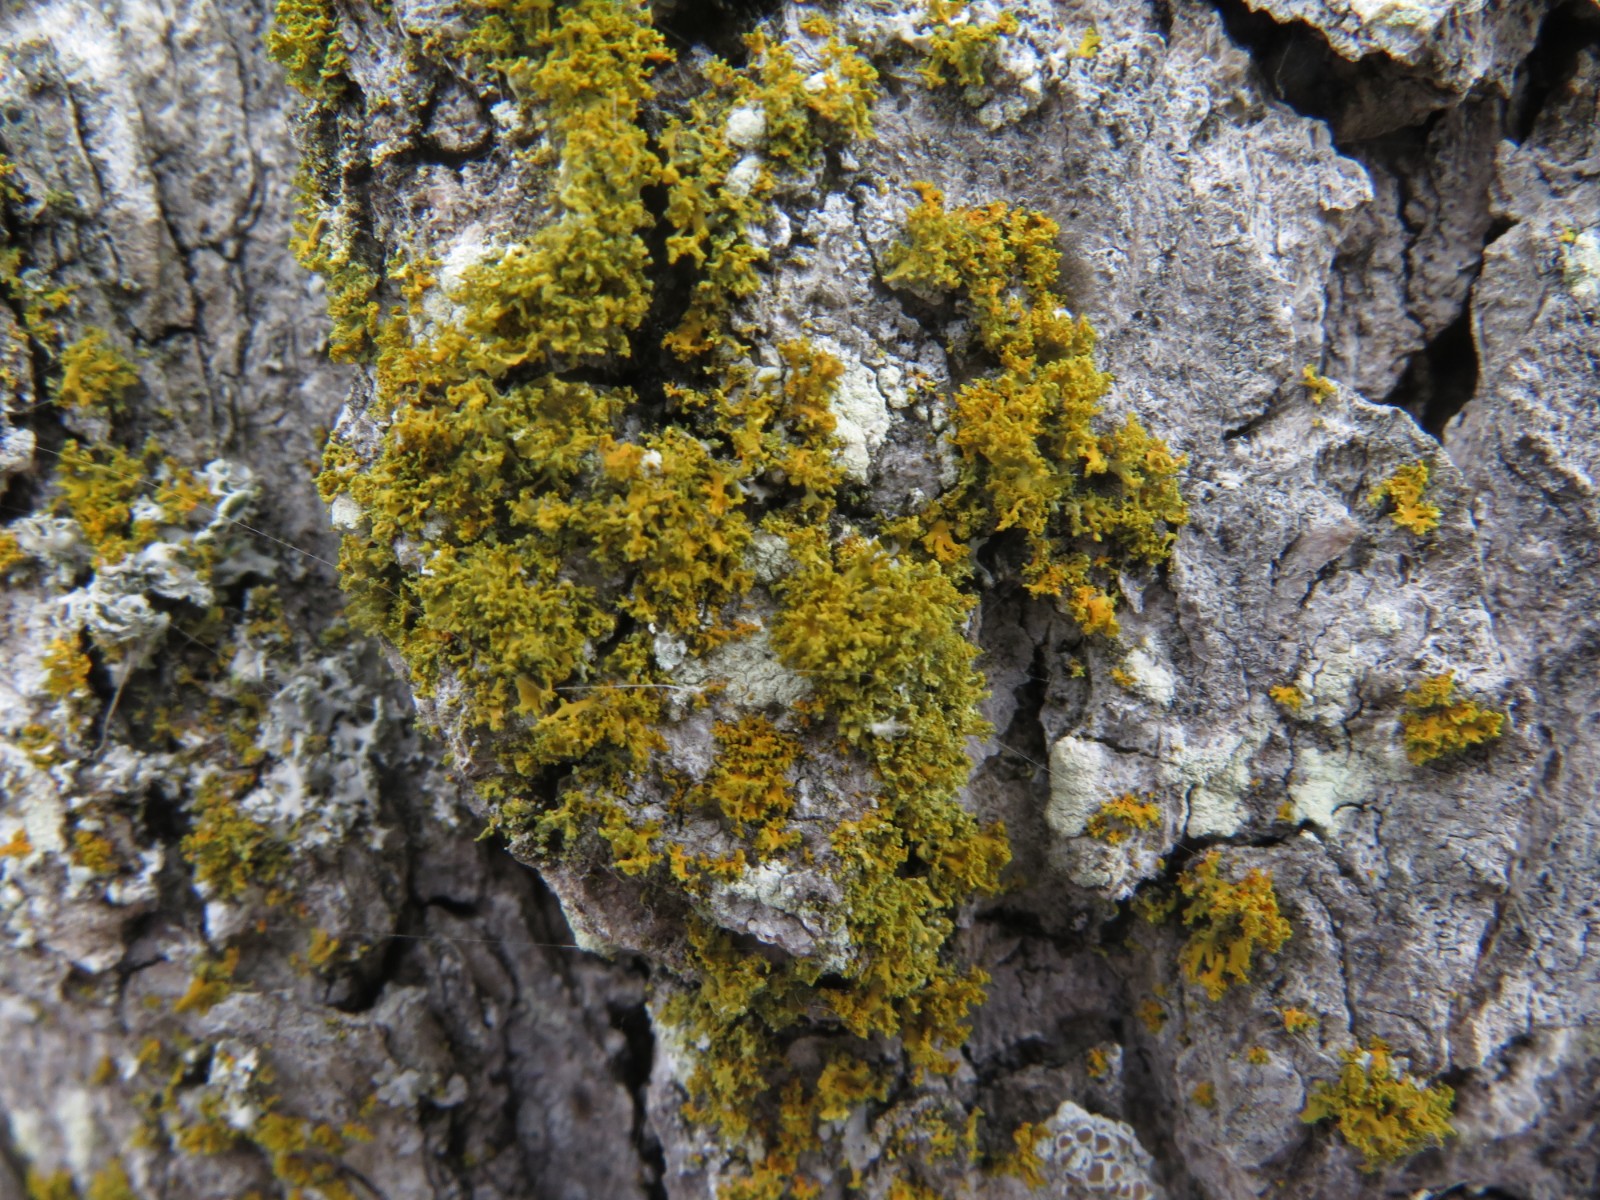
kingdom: Fungi
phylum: Ascomycota
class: Lecanoromycetes
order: Teloschistales
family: Teloschistaceae
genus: Polycauliona
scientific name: Polycauliona candelaria
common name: tue-orangelav
